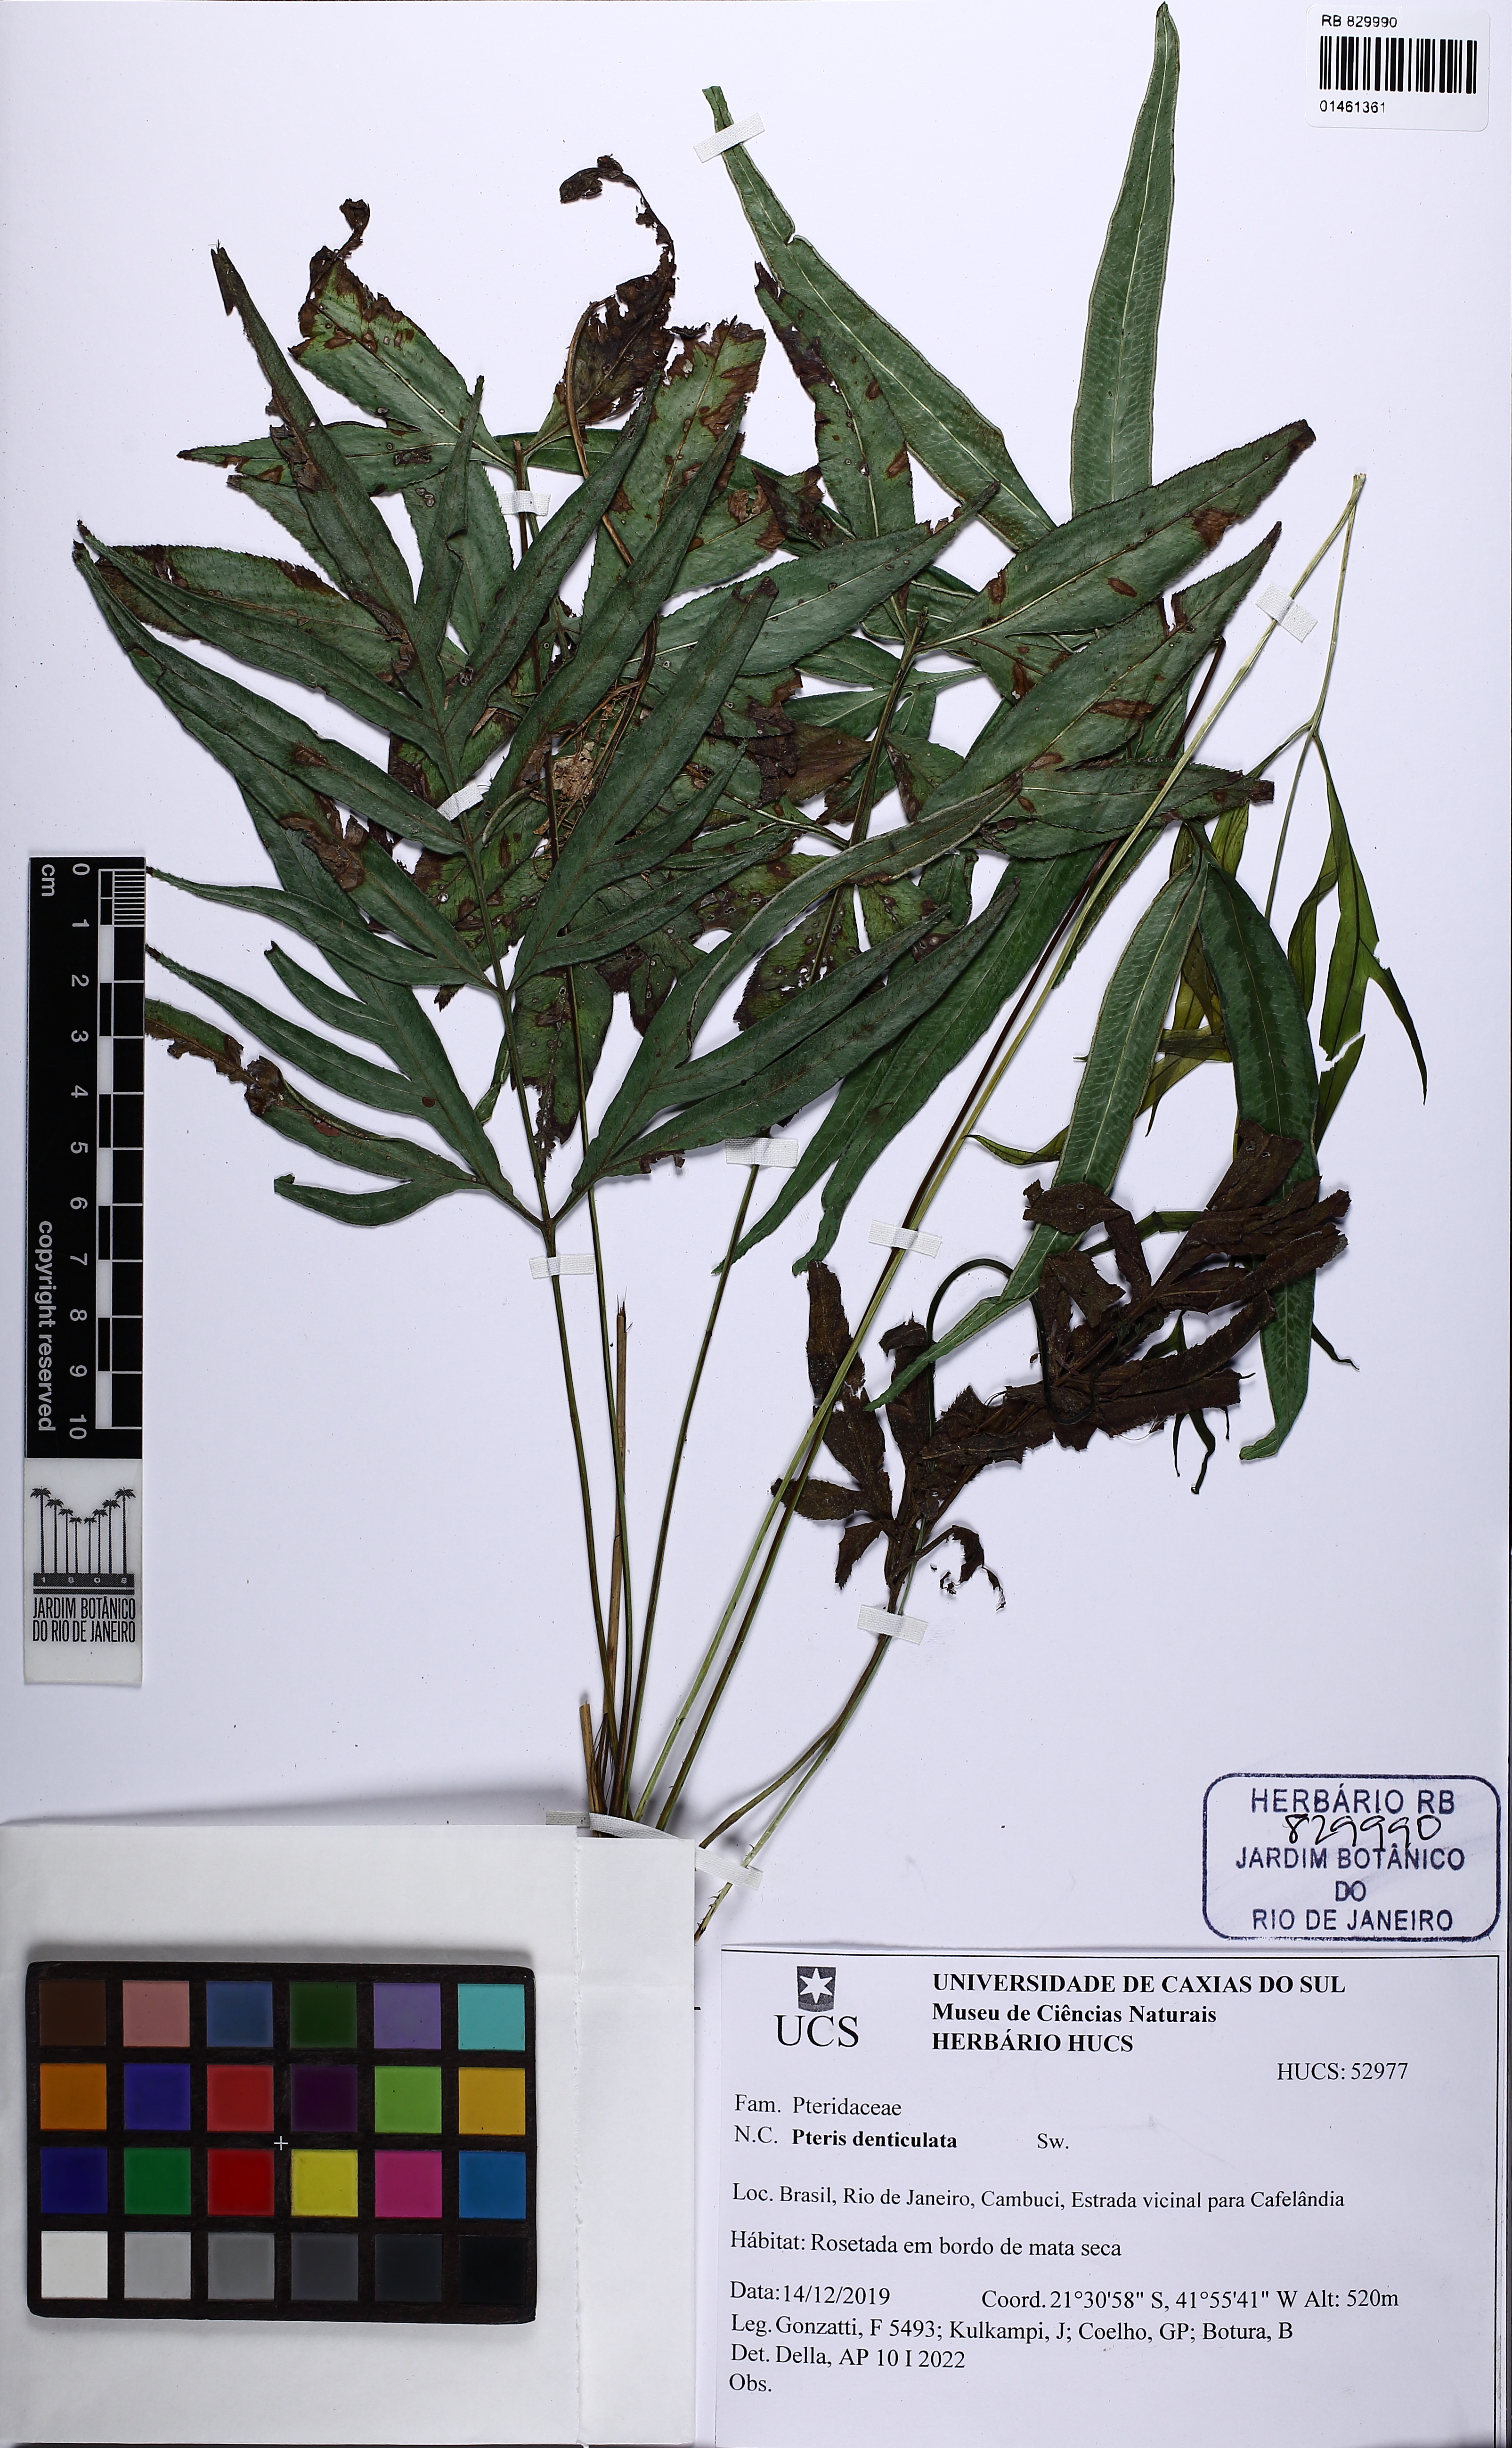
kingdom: Plantae
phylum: Tracheophyta
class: Polypodiopsida
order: Polypodiales
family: Dryopteridaceae
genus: Arachniodes
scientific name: Arachniodes denticulata
